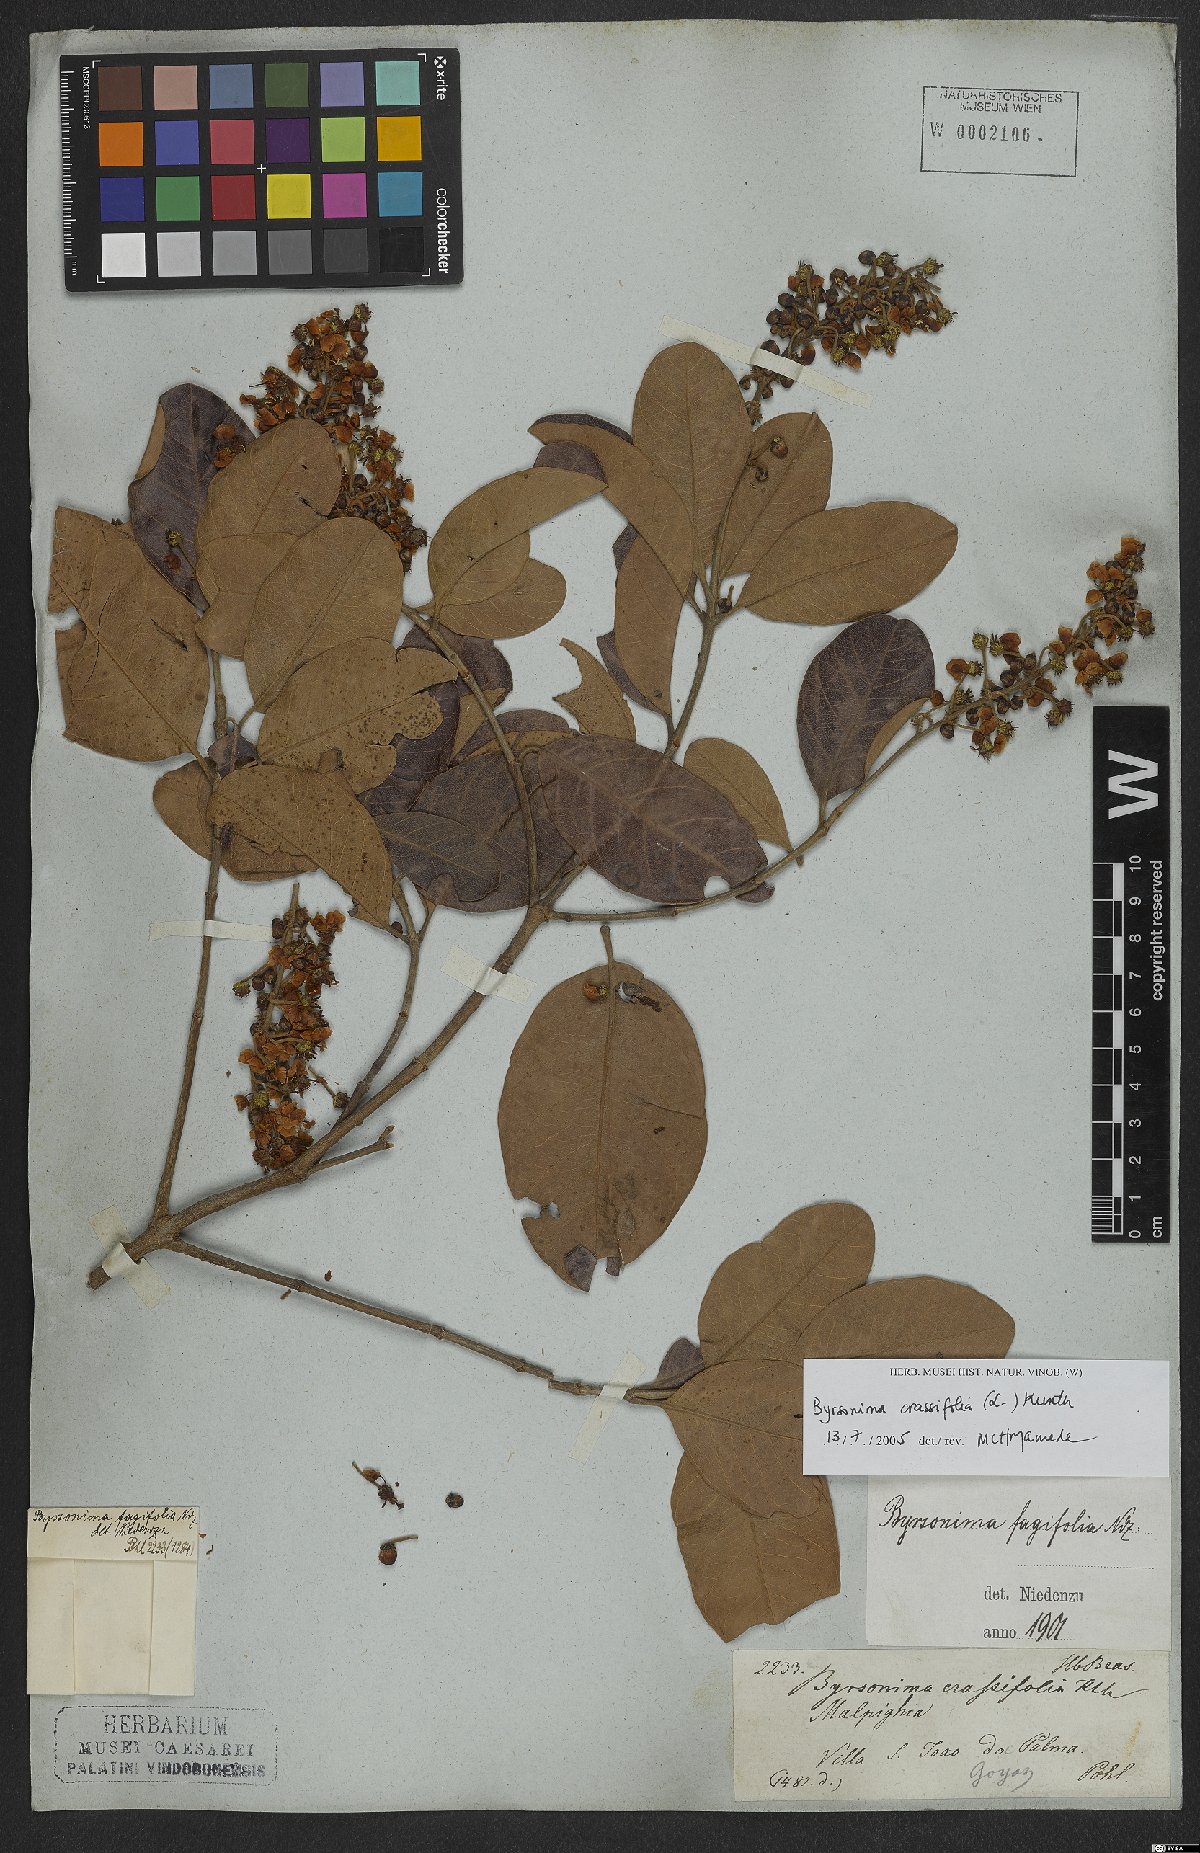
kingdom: Plantae
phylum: Tracheophyta
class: Magnoliopsida
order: Malpighiales
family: Malpighiaceae
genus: Byrsonima
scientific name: Byrsonima crassifolia
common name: Golden spoon
